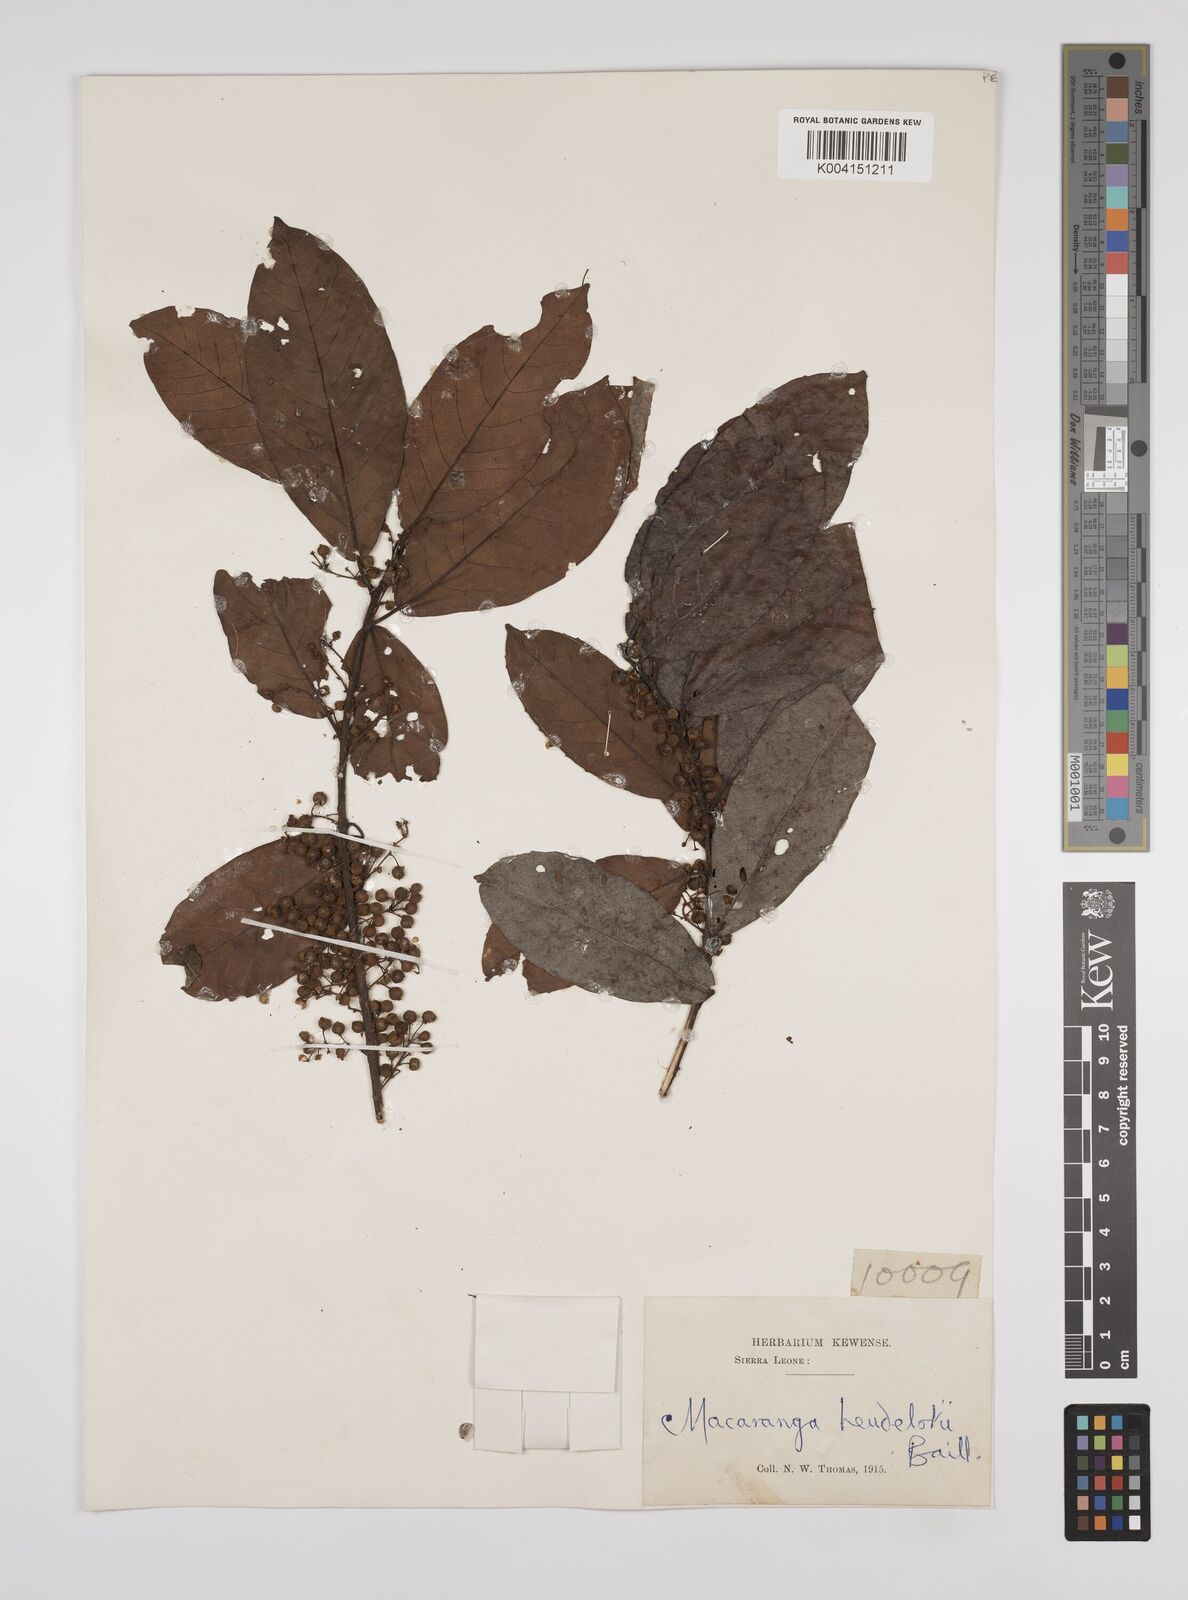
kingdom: Plantae
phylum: Tracheophyta
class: Magnoliopsida
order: Malpighiales
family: Euphorbiaceae
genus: Macaranga
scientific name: Macaranga heudelotii
